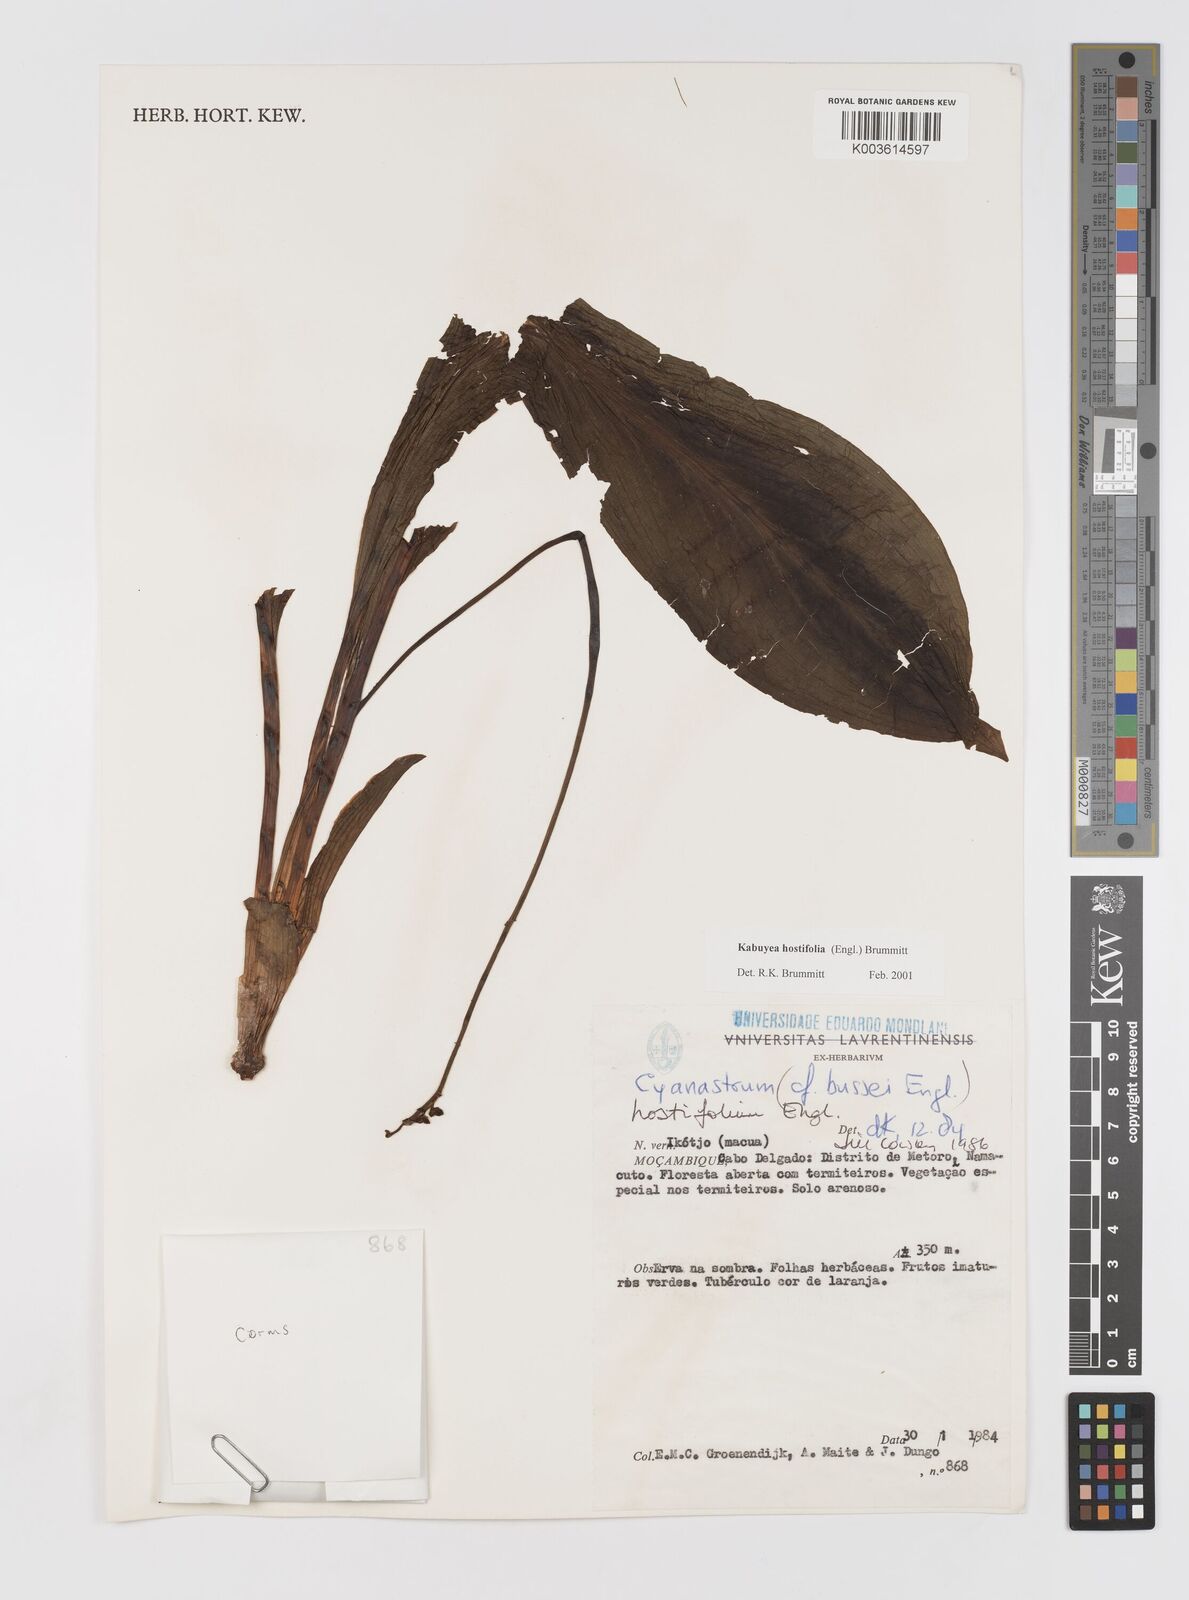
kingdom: Plantae
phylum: Tracheophyta
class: Liliopsida
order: Asparagales
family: Tecophilaeaceae
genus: Kabuyea
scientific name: Kabuyea hostifolia
